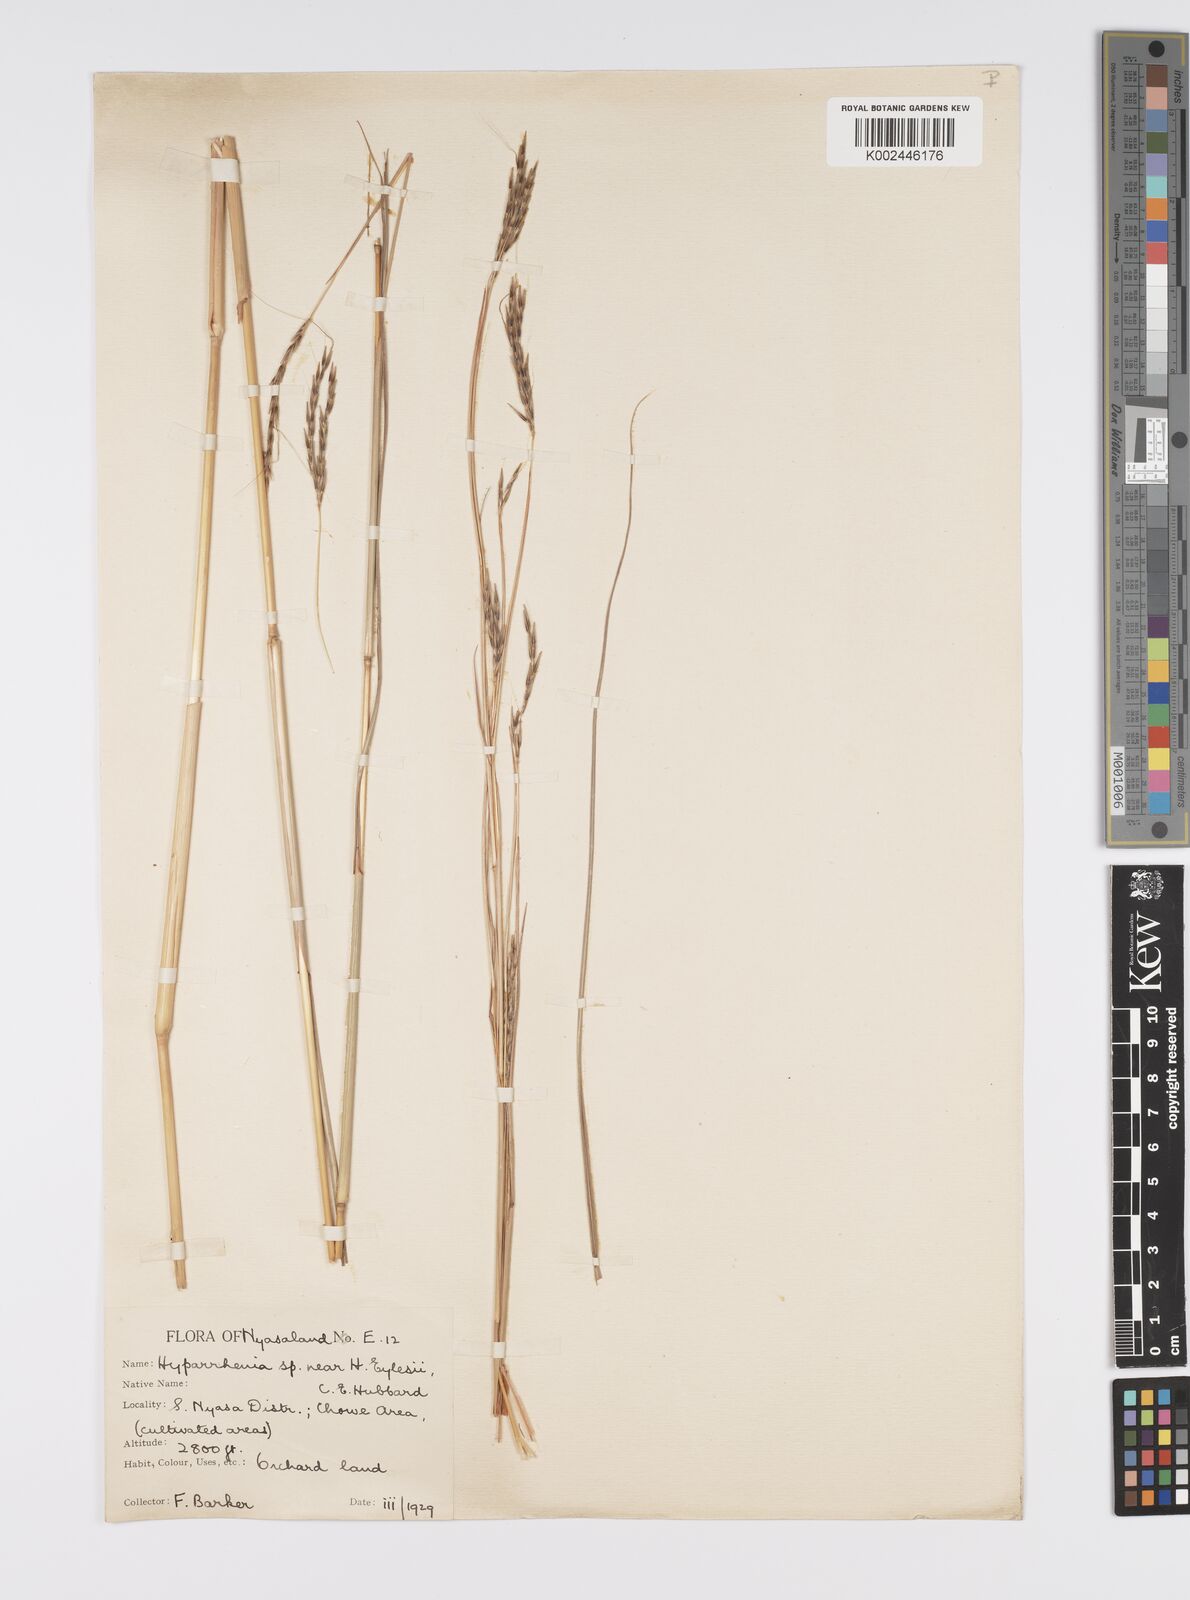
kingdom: Plantae
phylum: Tracheophyta
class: Liliopsida
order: Poales
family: Poaceae
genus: Elymandra
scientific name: Elymandra grallata
